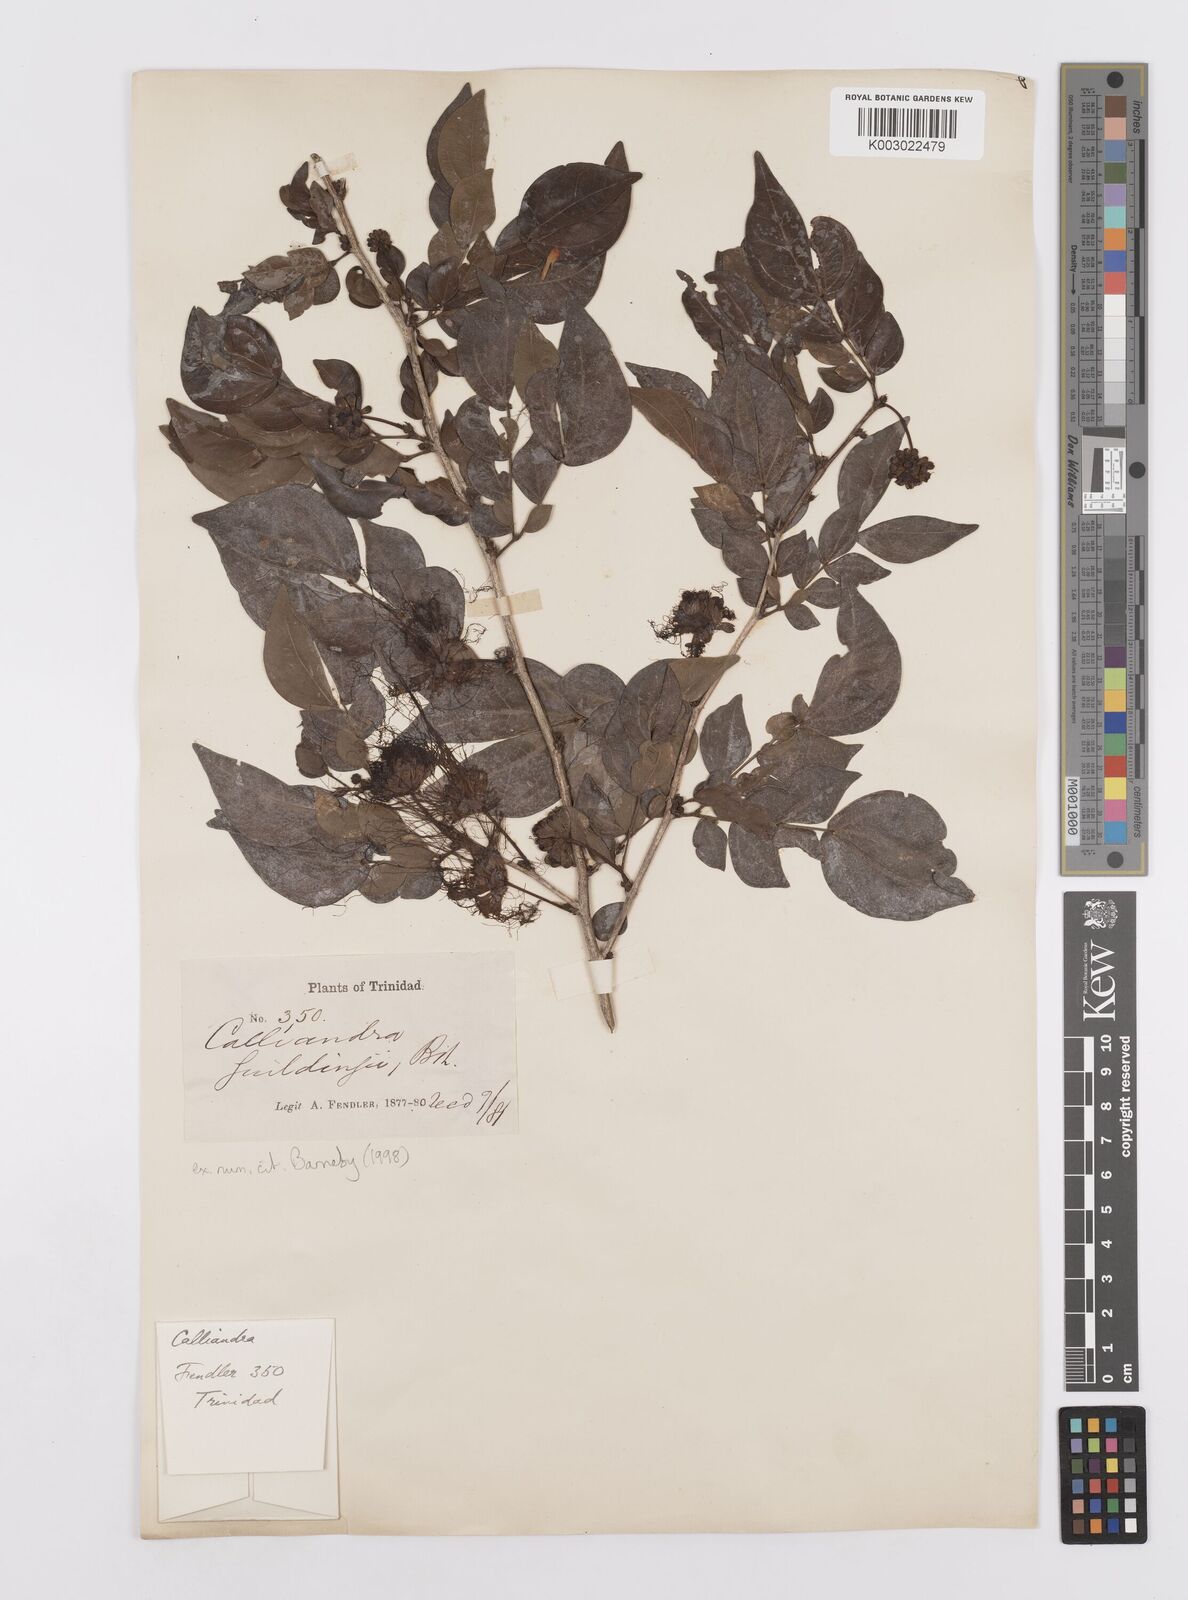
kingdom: Plantae
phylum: Tracheophyta
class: Magnoliopsida
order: Fabales
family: Fabaceae
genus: Calliandra
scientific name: Calliandra guildingii
